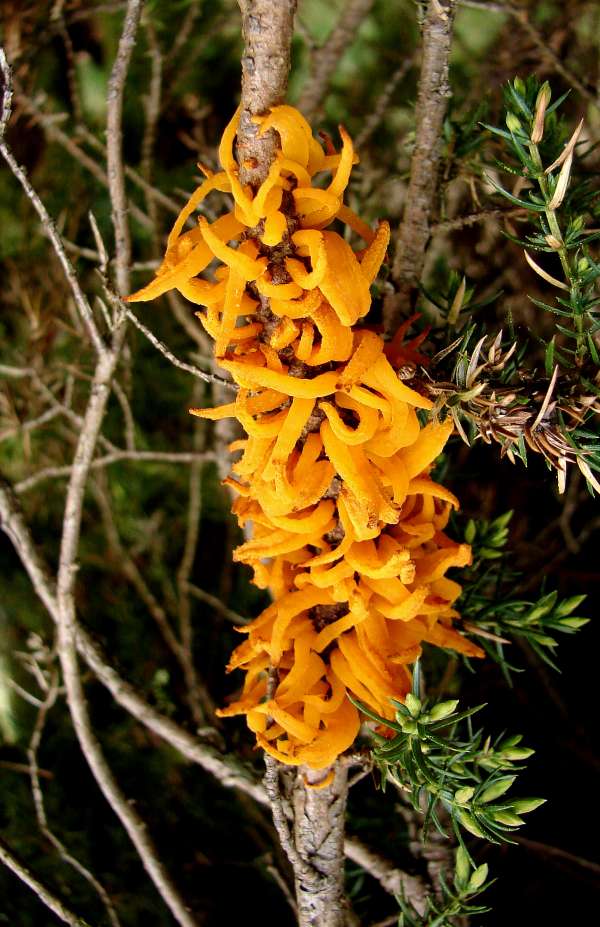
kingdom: Fungi
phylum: Basidiomycota
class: Pucciniomycetes
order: Pucciniales
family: Gymnosporangiaceae
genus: Gymnosporangium
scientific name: Gymnosporangium clavariiforme
